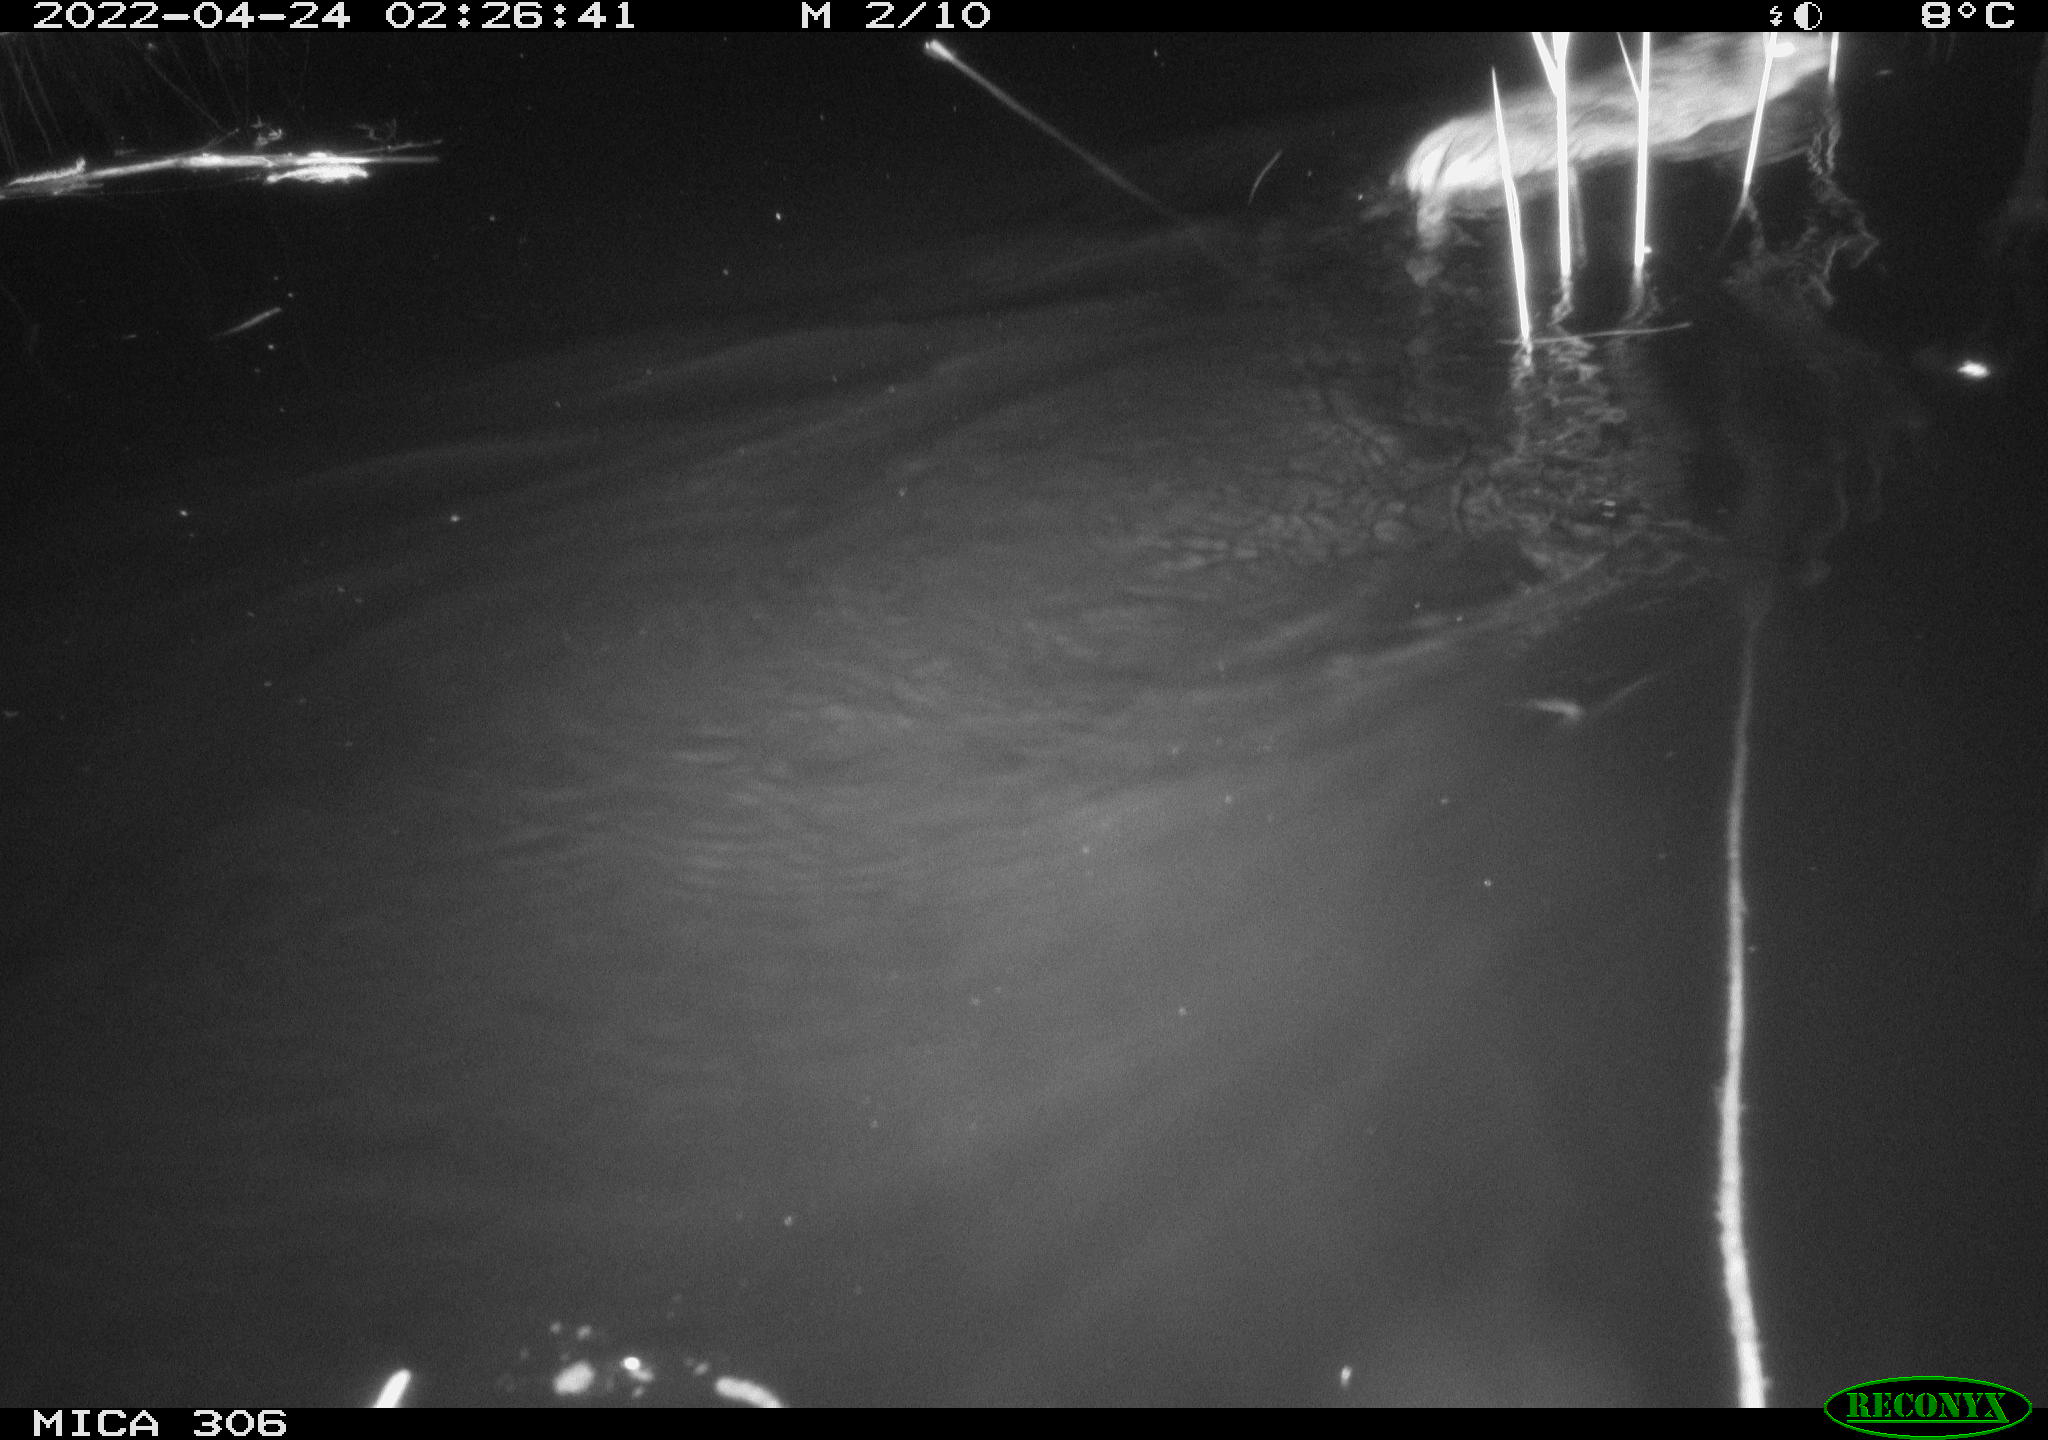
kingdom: Animalia
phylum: Chordata
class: Mammalia
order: Rodentia
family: Muridae
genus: Rattus
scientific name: Rattus norvegicus
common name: Brown rat
